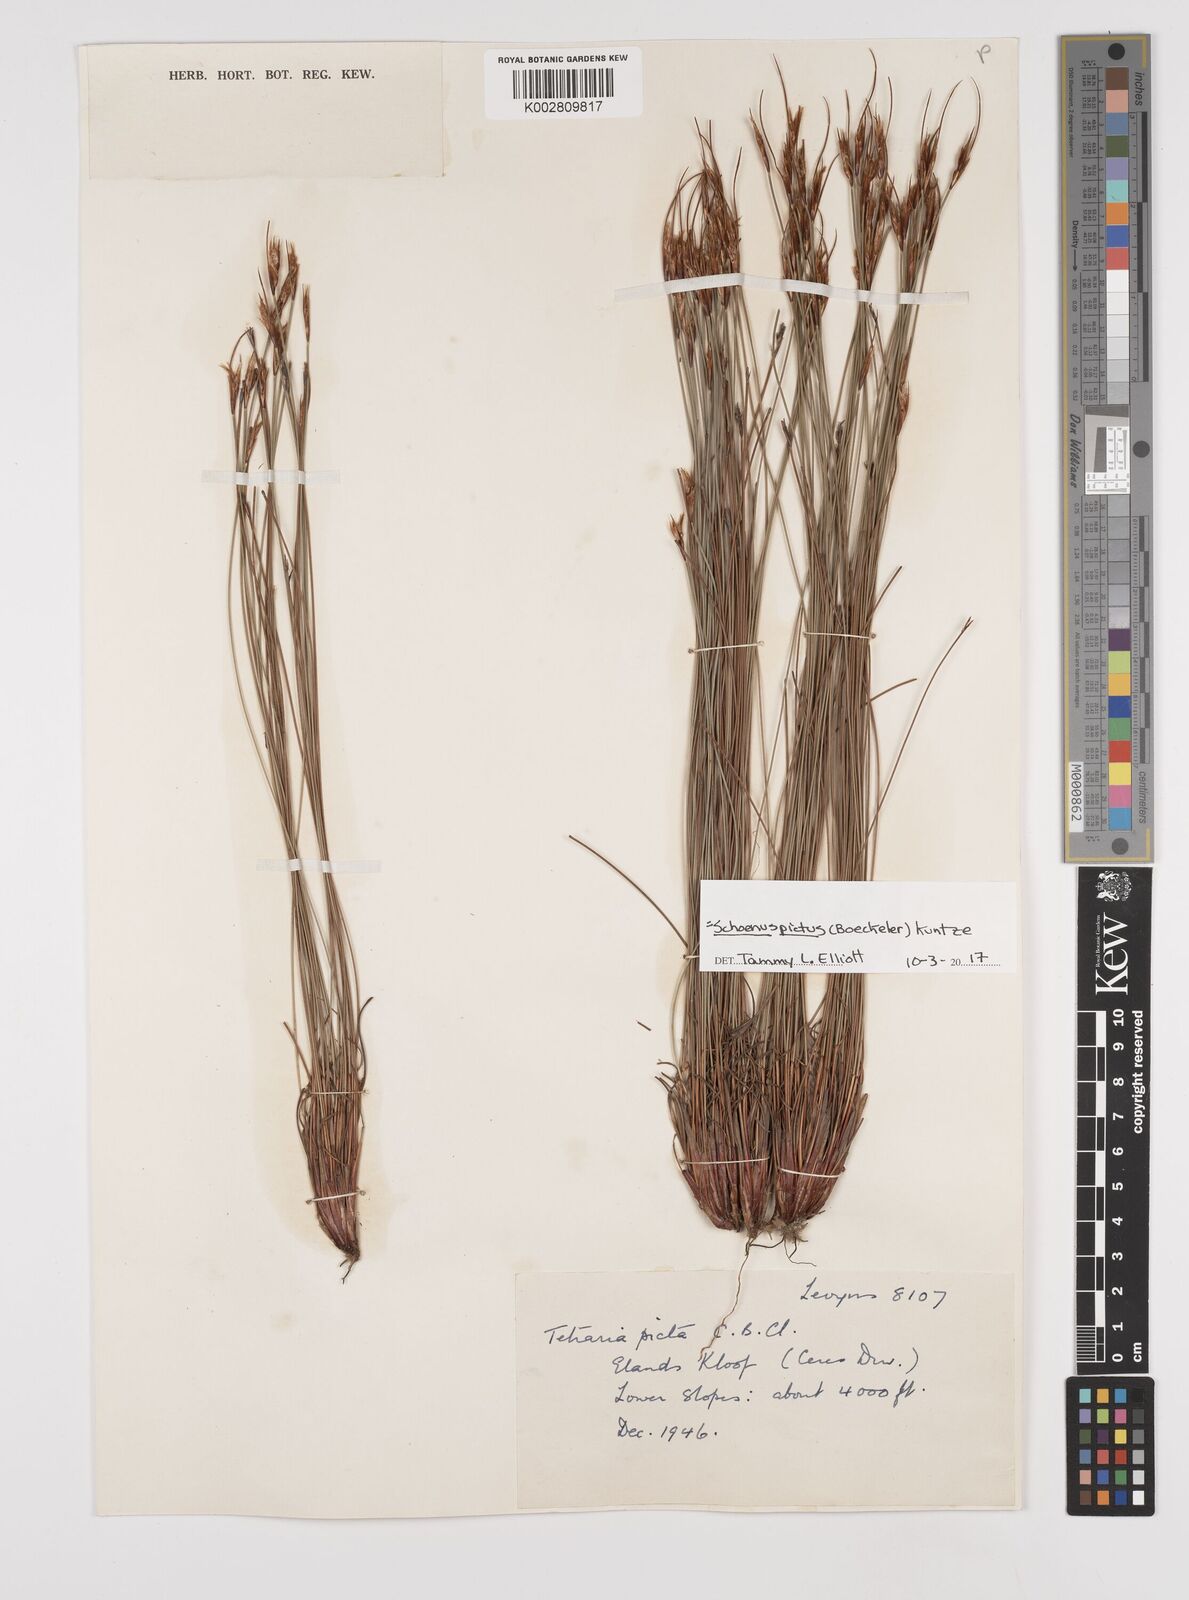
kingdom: Plantae
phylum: Tracheophyta
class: Liliopsida
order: Poales
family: Cyperaceae
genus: Schoenus
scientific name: Schoenus pictus
